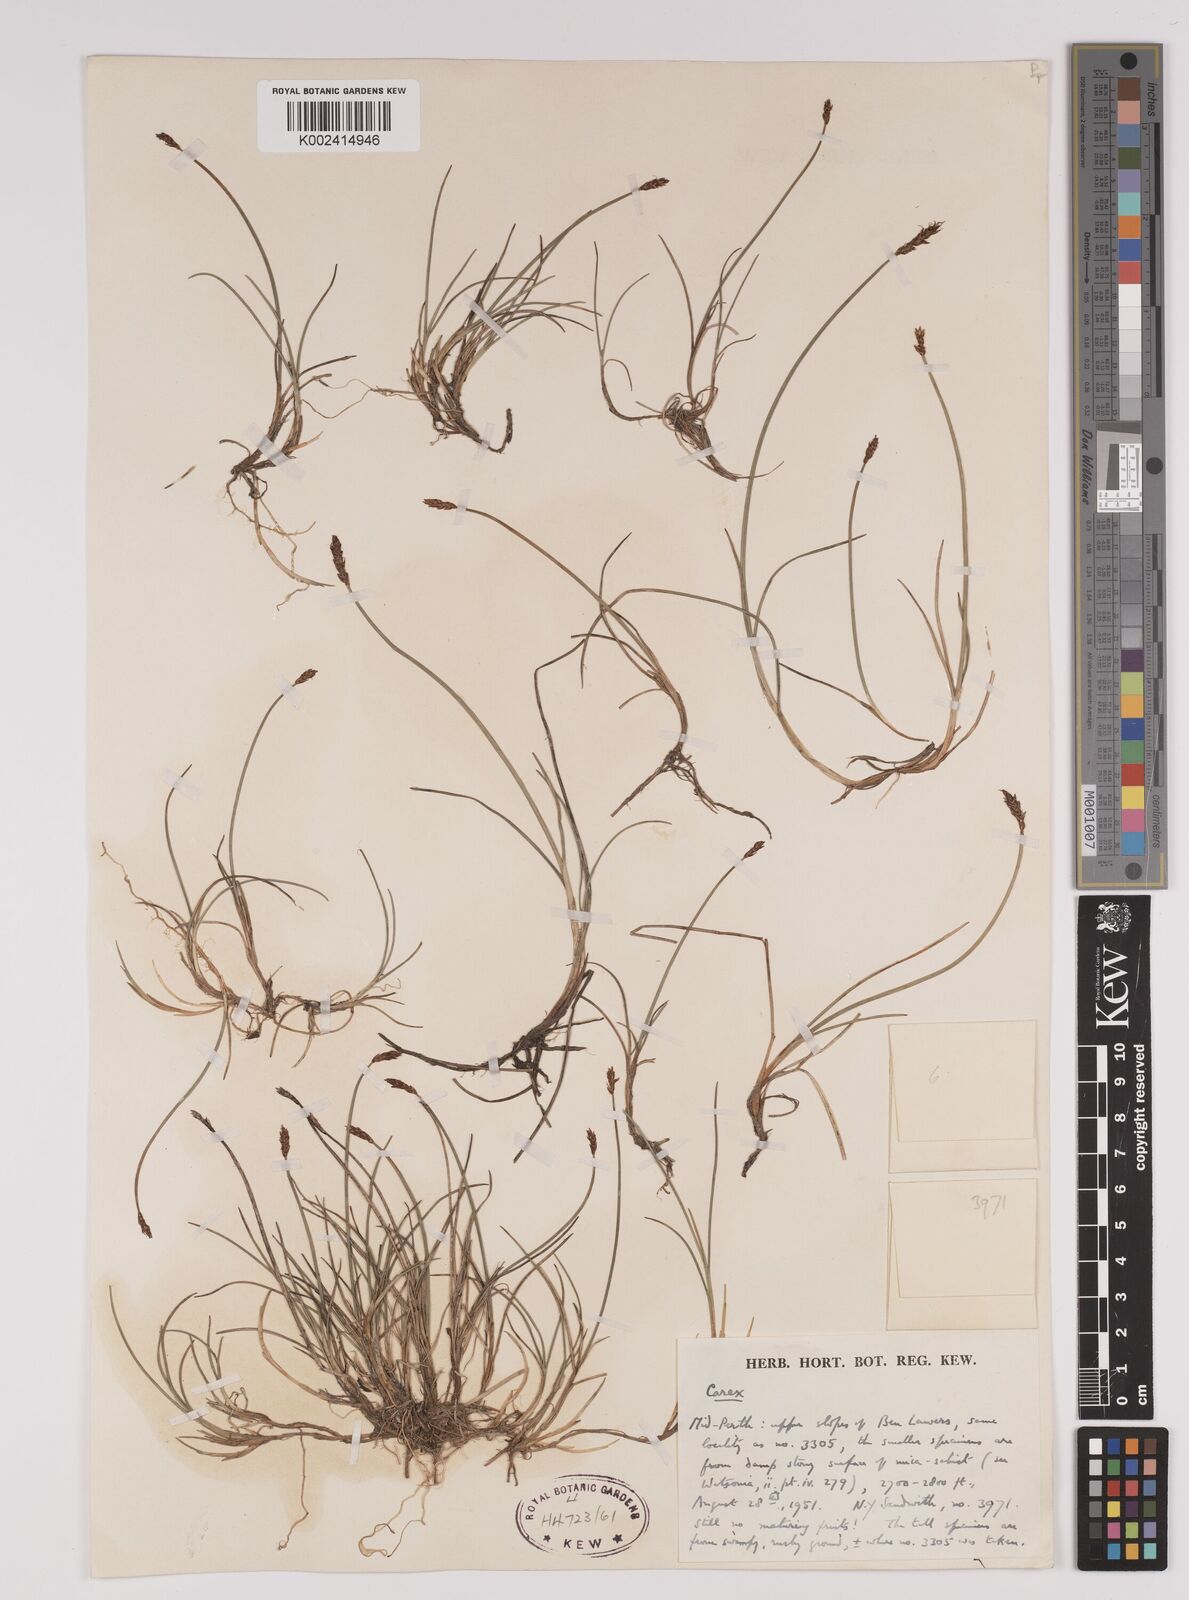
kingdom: Plantae
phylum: Tracheophyta
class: Liliopsida
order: Poales
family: Cyperaceae
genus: Carex
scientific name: Carex dioica
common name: Dioecious sedge
